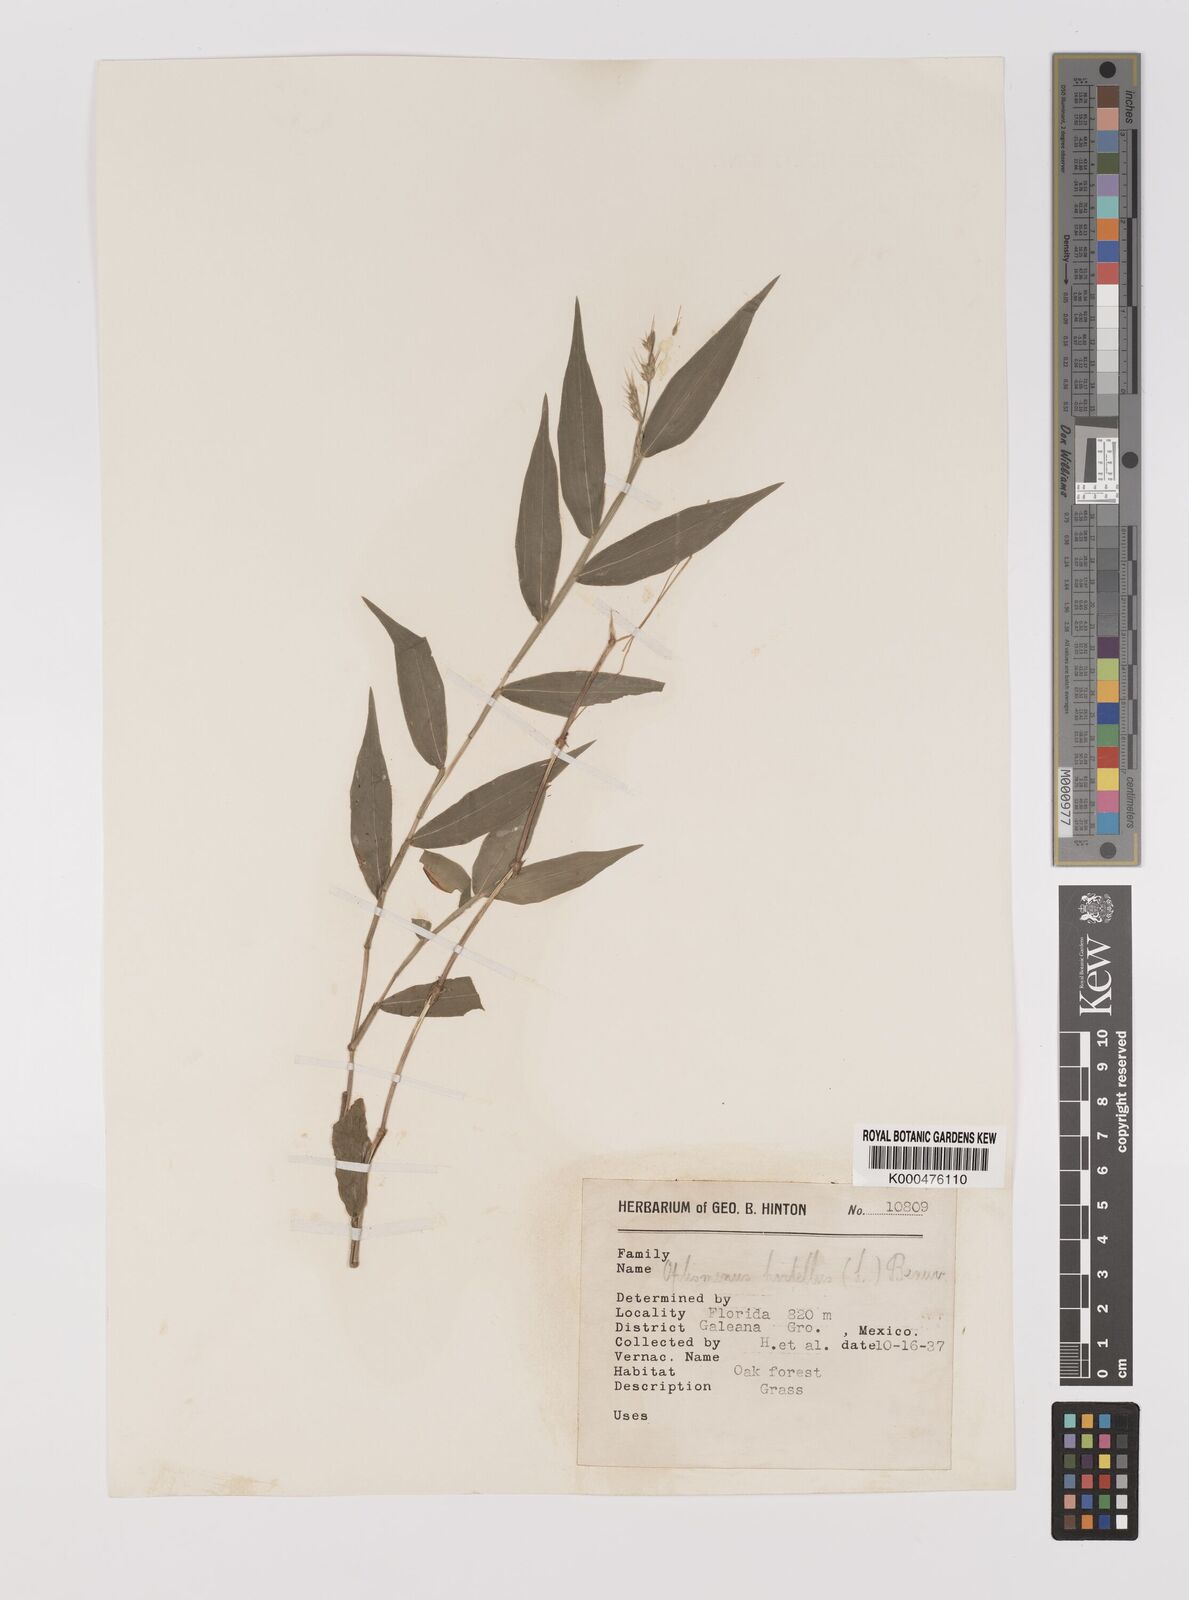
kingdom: Plantae
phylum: Tracheophyta
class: Liliopsida
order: Poales
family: Poaceae
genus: Oplismenus
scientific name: Oplismenus hirtellus
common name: Basketgrass
